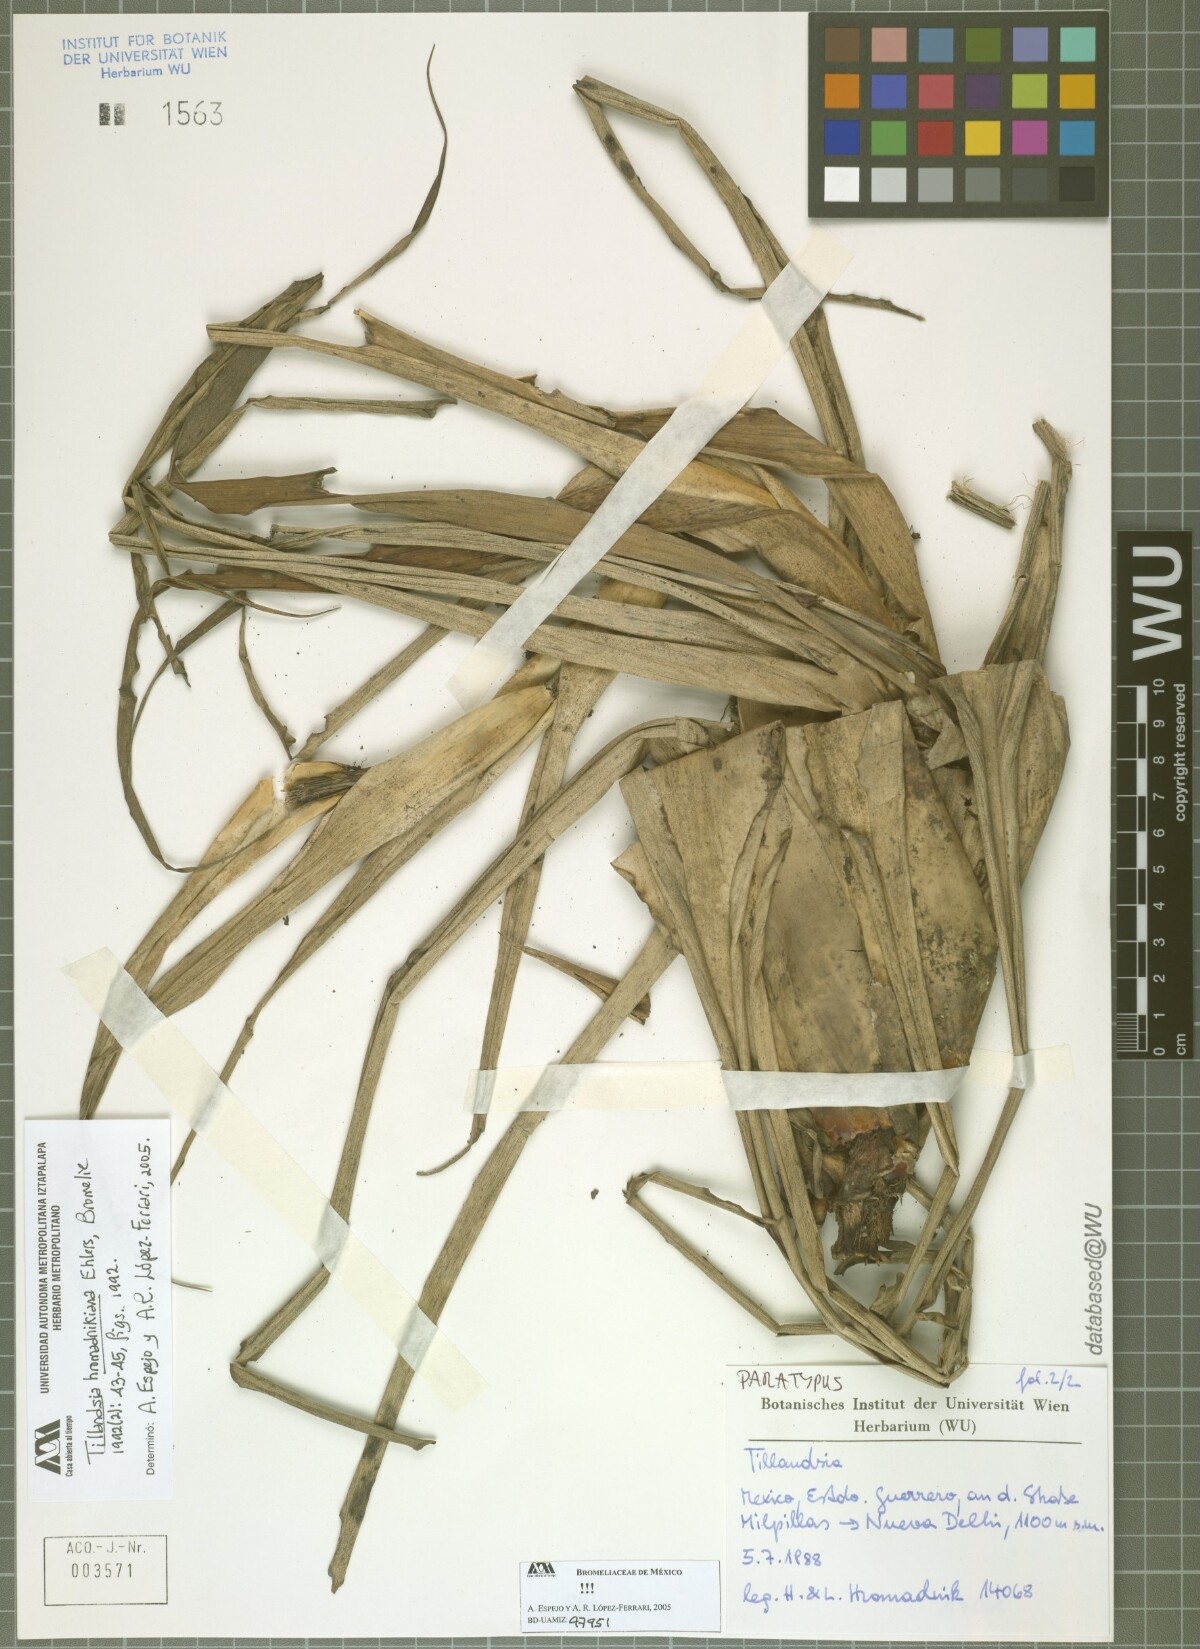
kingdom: Plantae
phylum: Tracheophyta
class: Liliopsida
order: Poales
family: Bromeliaceae
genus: Tillandsia
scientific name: Tillandsia prodigiosa
